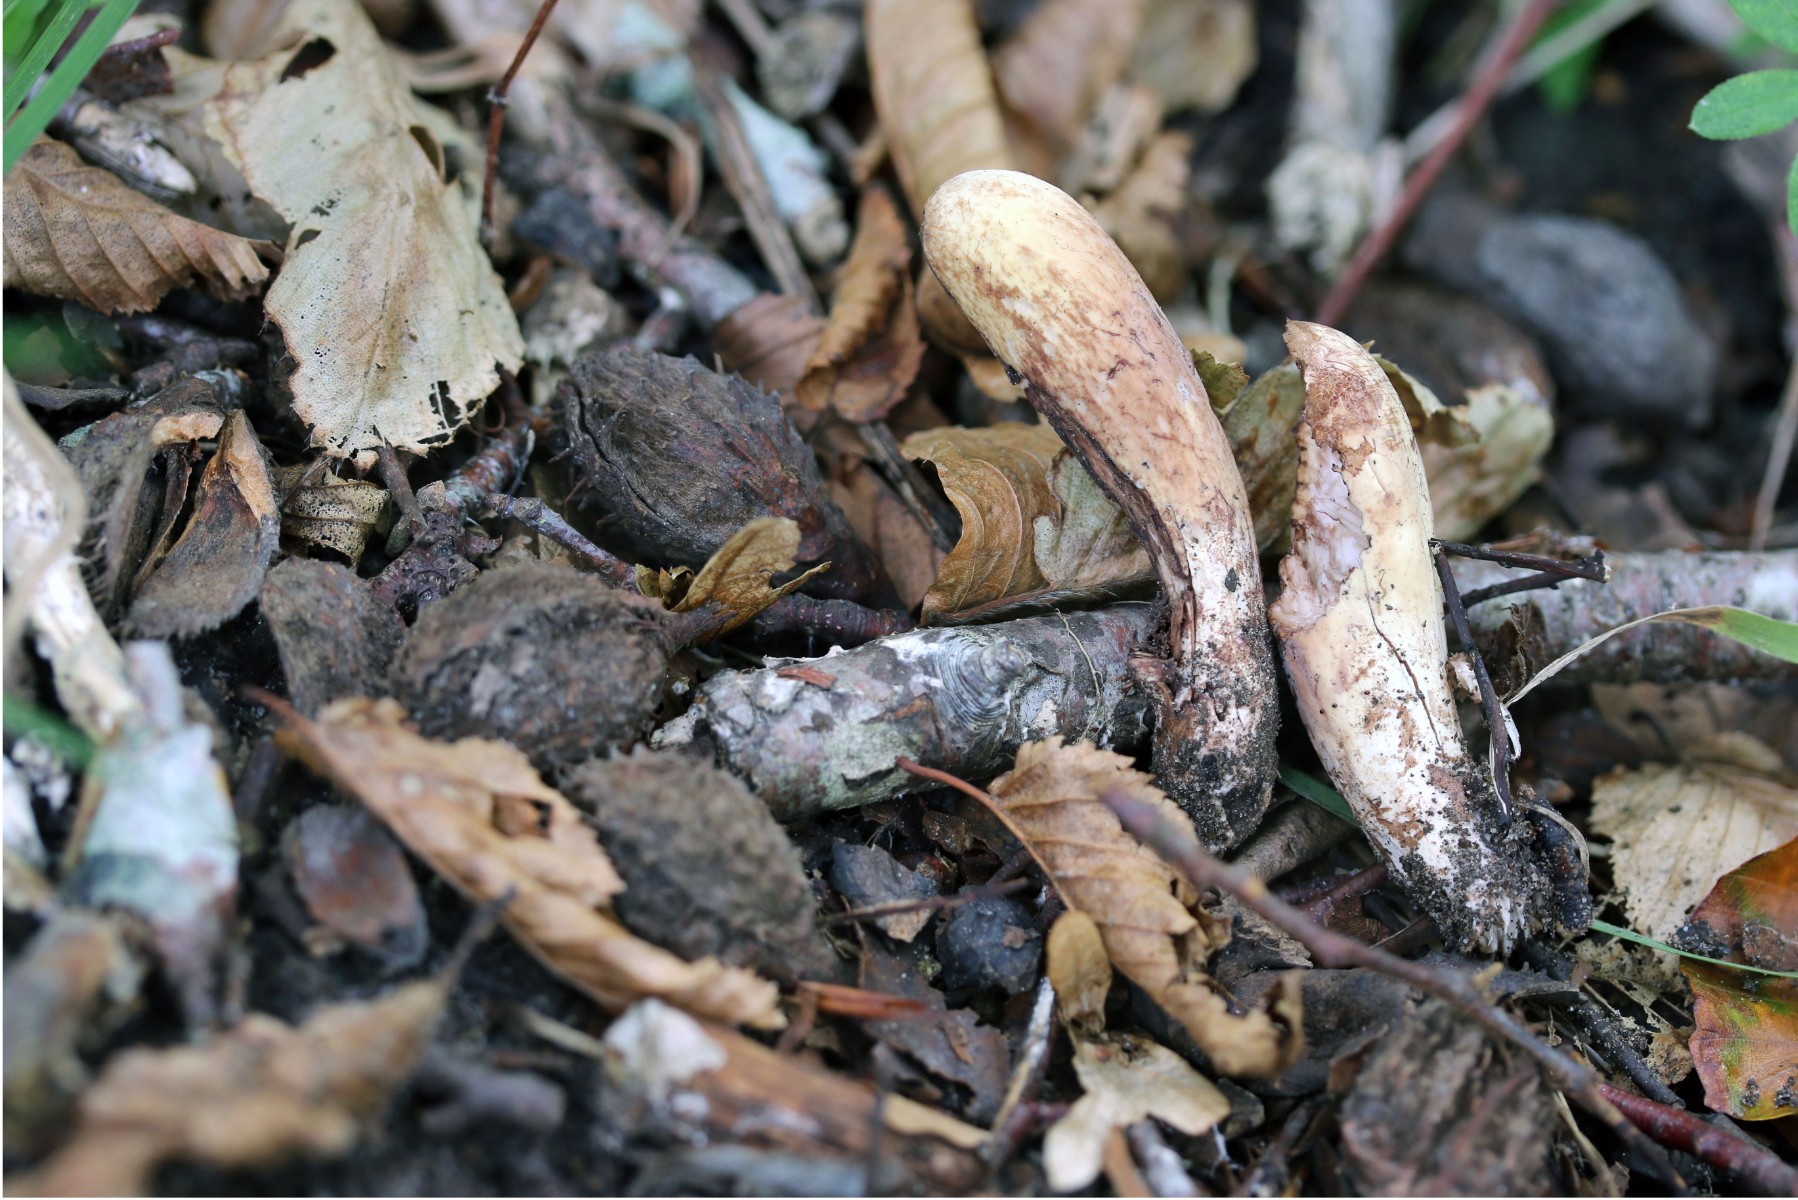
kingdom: Fungi
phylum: Basidiomycota
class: Agaricomycetes
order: Gomphales
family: Clavariadelphaceae
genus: Clavariadelphus
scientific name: Clavariadelphus pistillaris
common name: herkules-kæmpekølle
